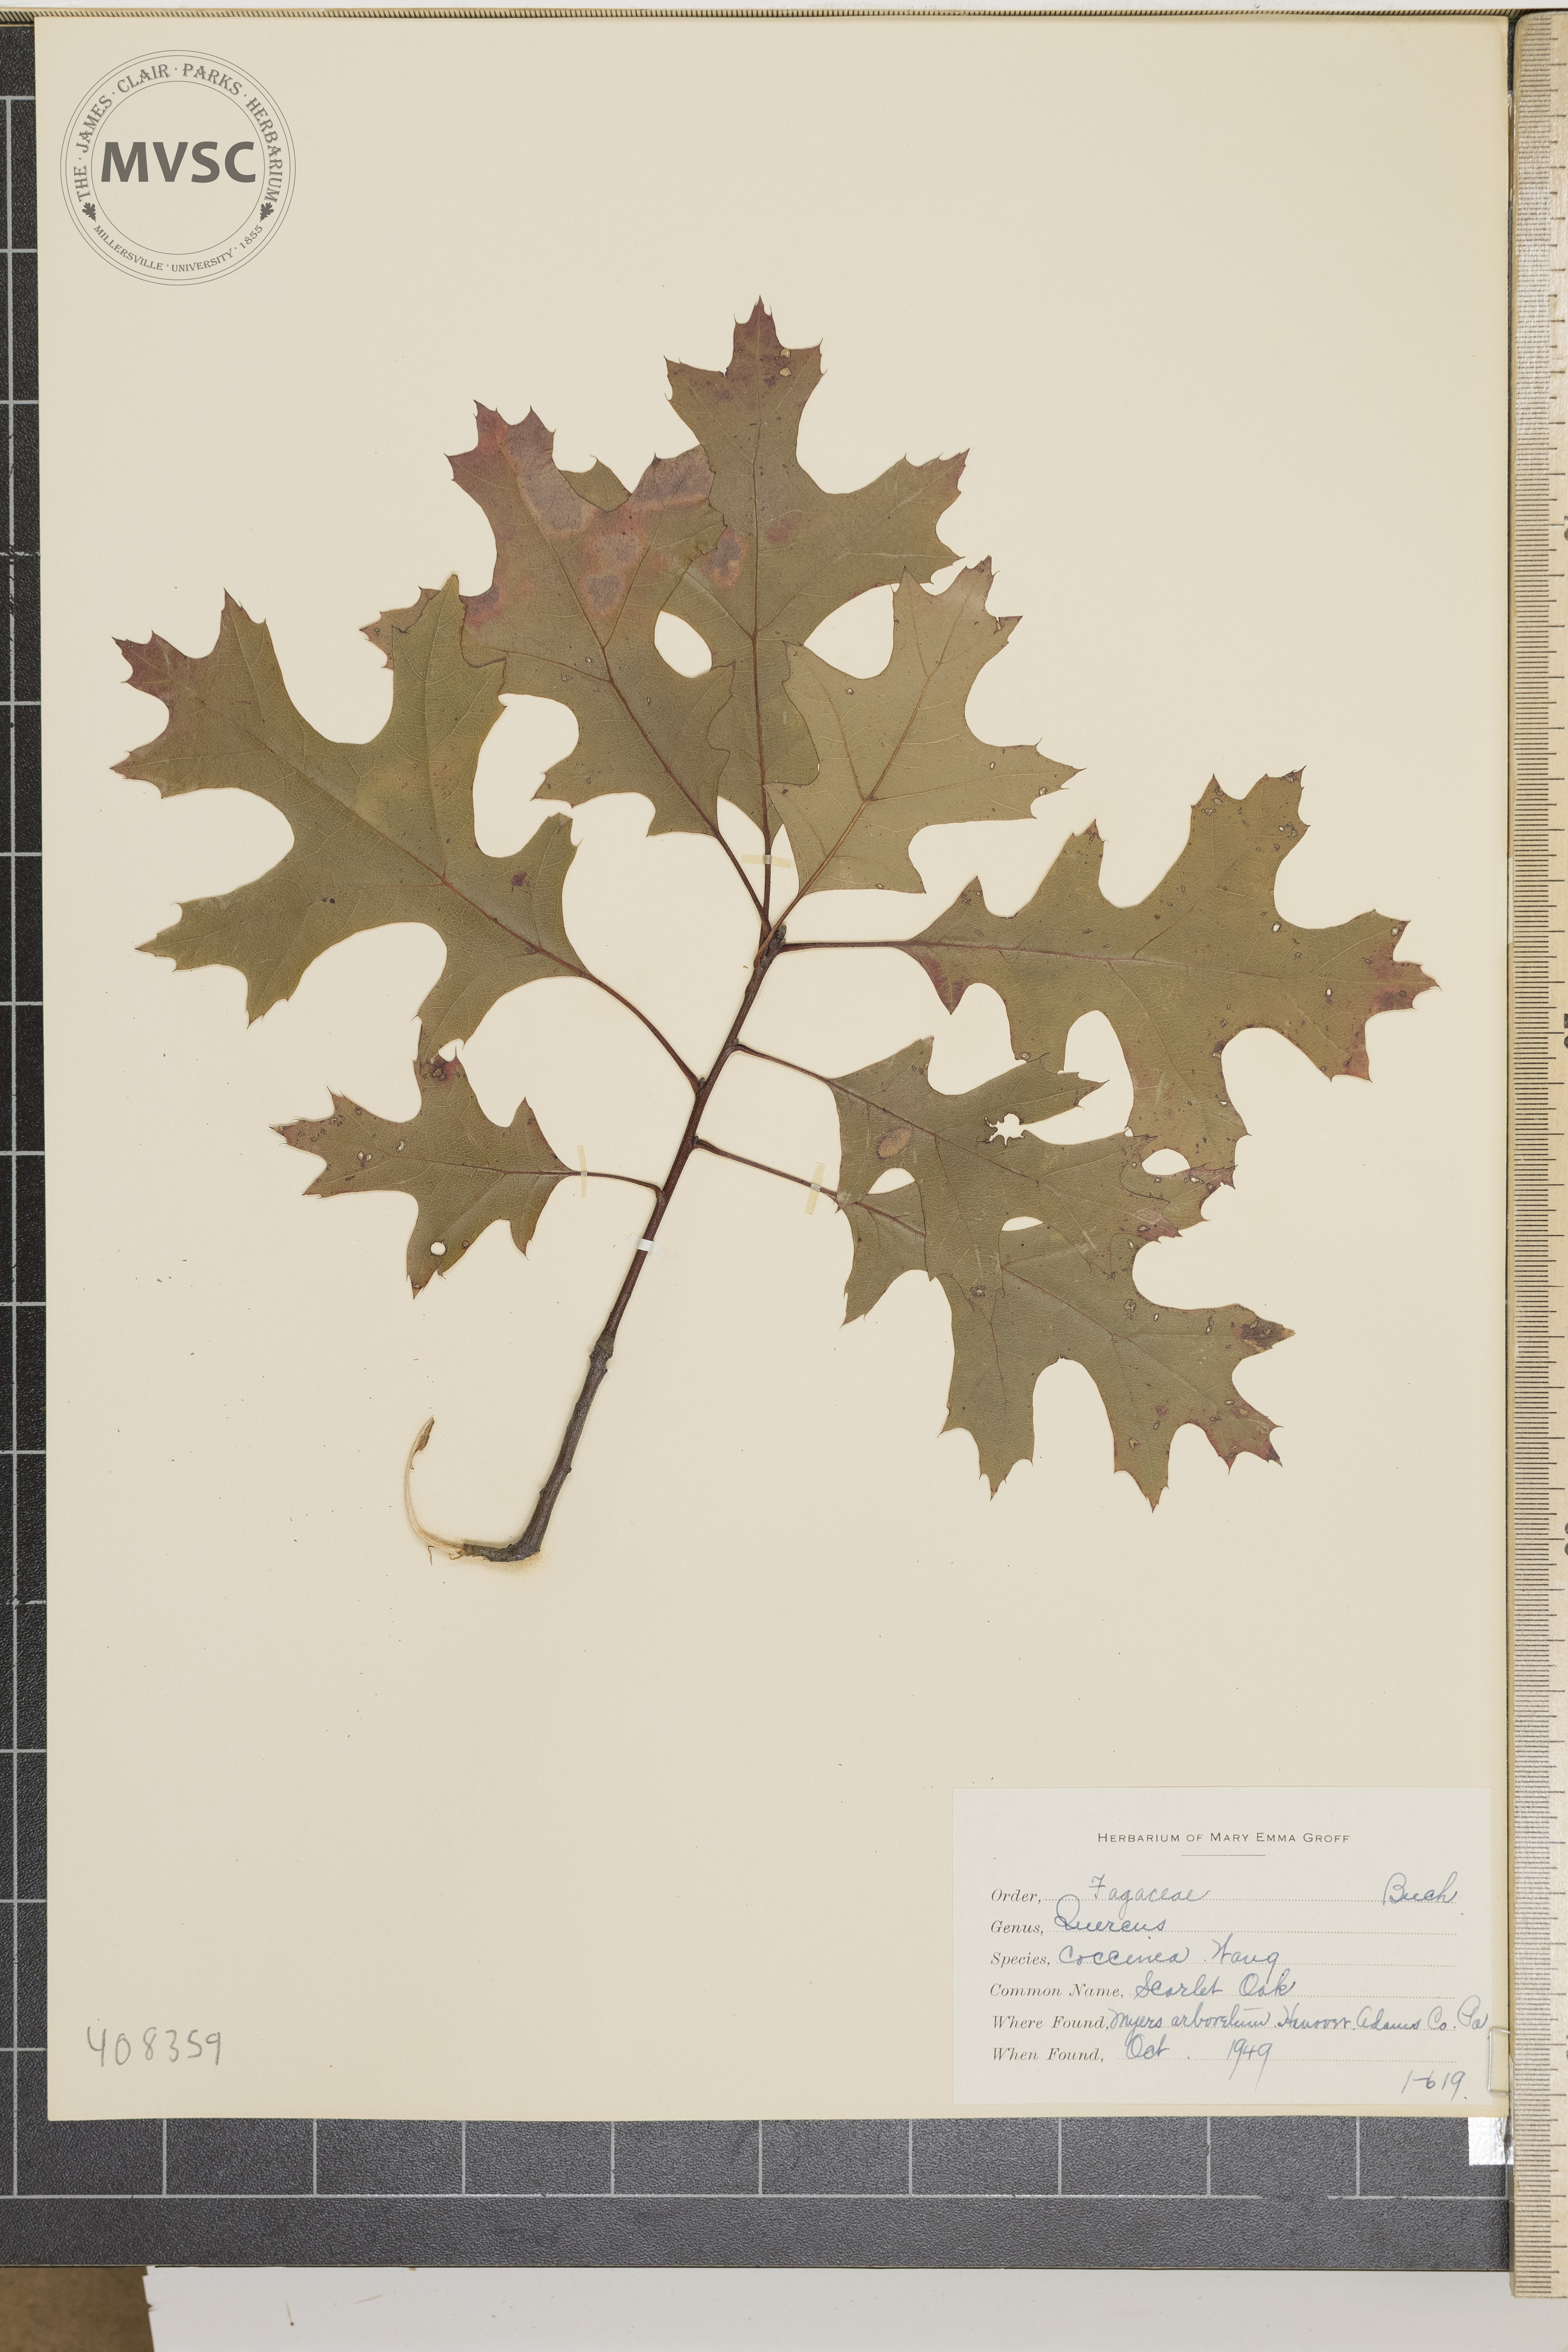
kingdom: Plantae
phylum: Tracheophyta
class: Magnoliopsida
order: Fagales
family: Fagaceae
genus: Quercus
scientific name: Quercus coccinea
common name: Scarlet oak
